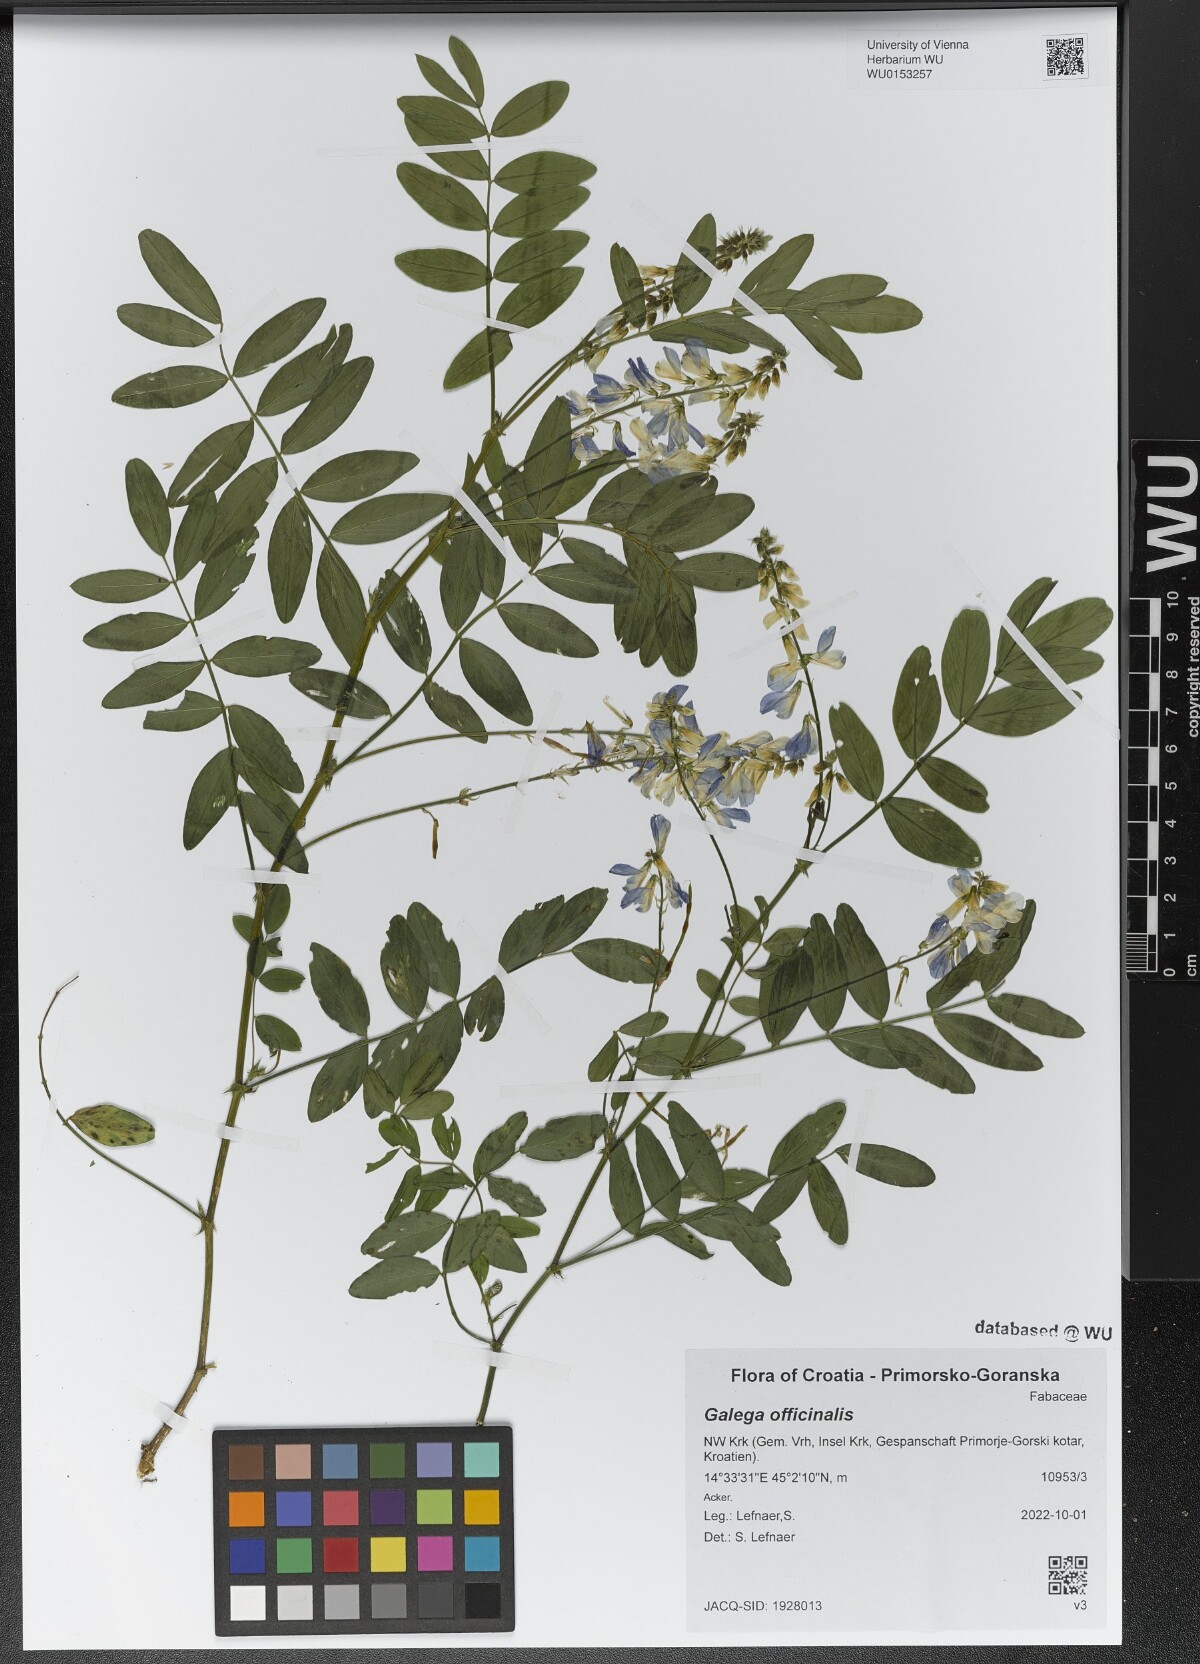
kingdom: Plantae
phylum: Tracheophyta
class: Magnoliopsida
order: Fabales
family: Fabaceae
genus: Galega
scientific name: Galega officinalis
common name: Goat's-rue
